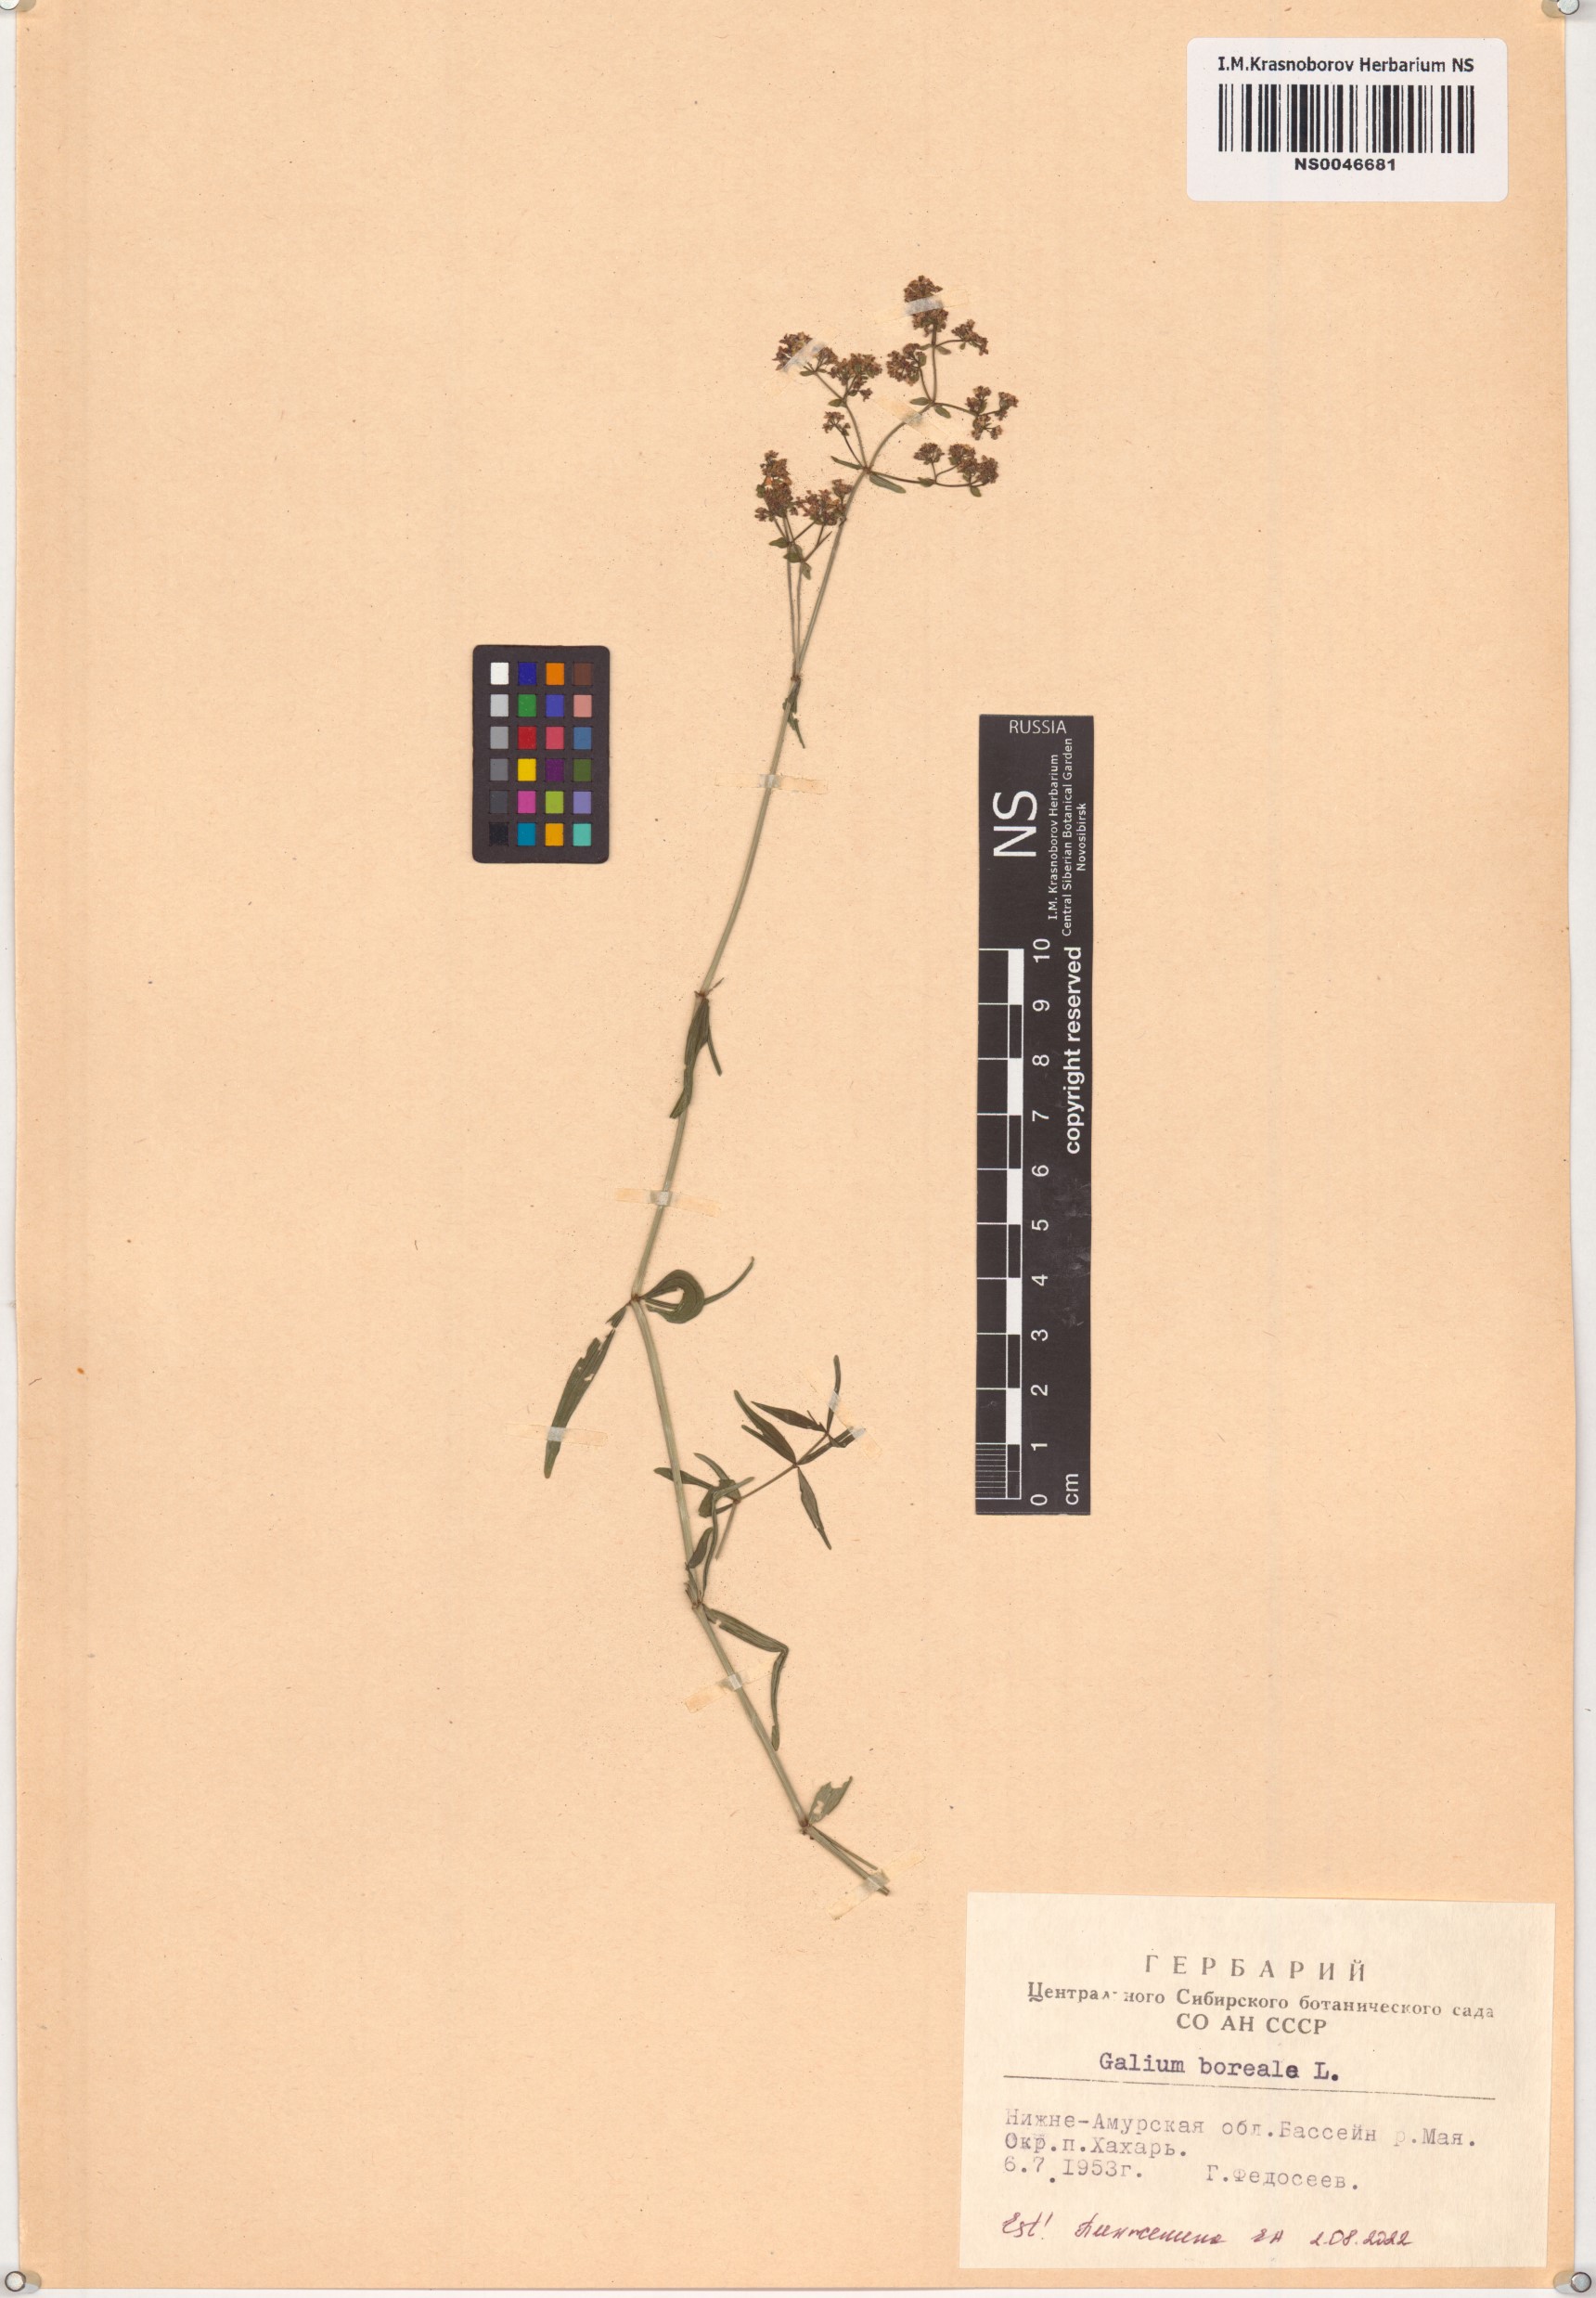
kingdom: Plantae
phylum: Tracheophyta
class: Magnoliopsida
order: Gentianales
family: Rubiaceae
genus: Galium
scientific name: Galium boreale
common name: Northern bedstraw
